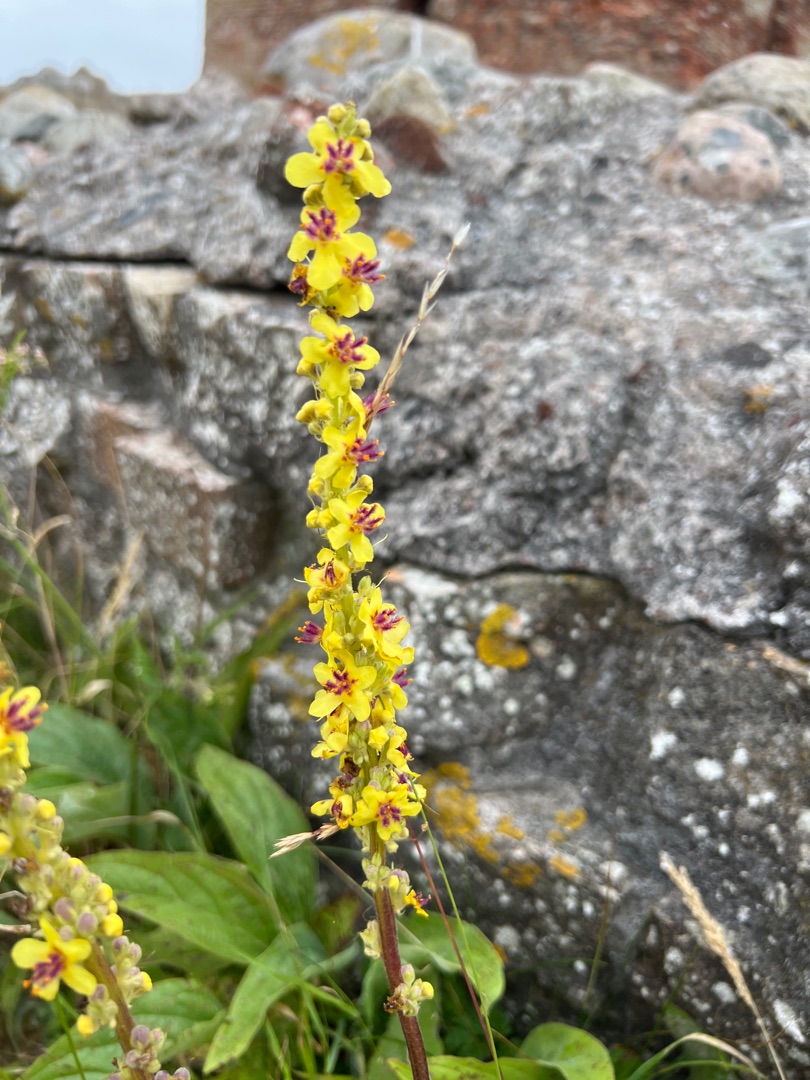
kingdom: Plantae
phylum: Tracheophyta
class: Magnoliopsida
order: Lamiales
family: Scrophulariaceae
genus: Verbascum
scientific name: Verbascum nigrum
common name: Mørk kongelys
